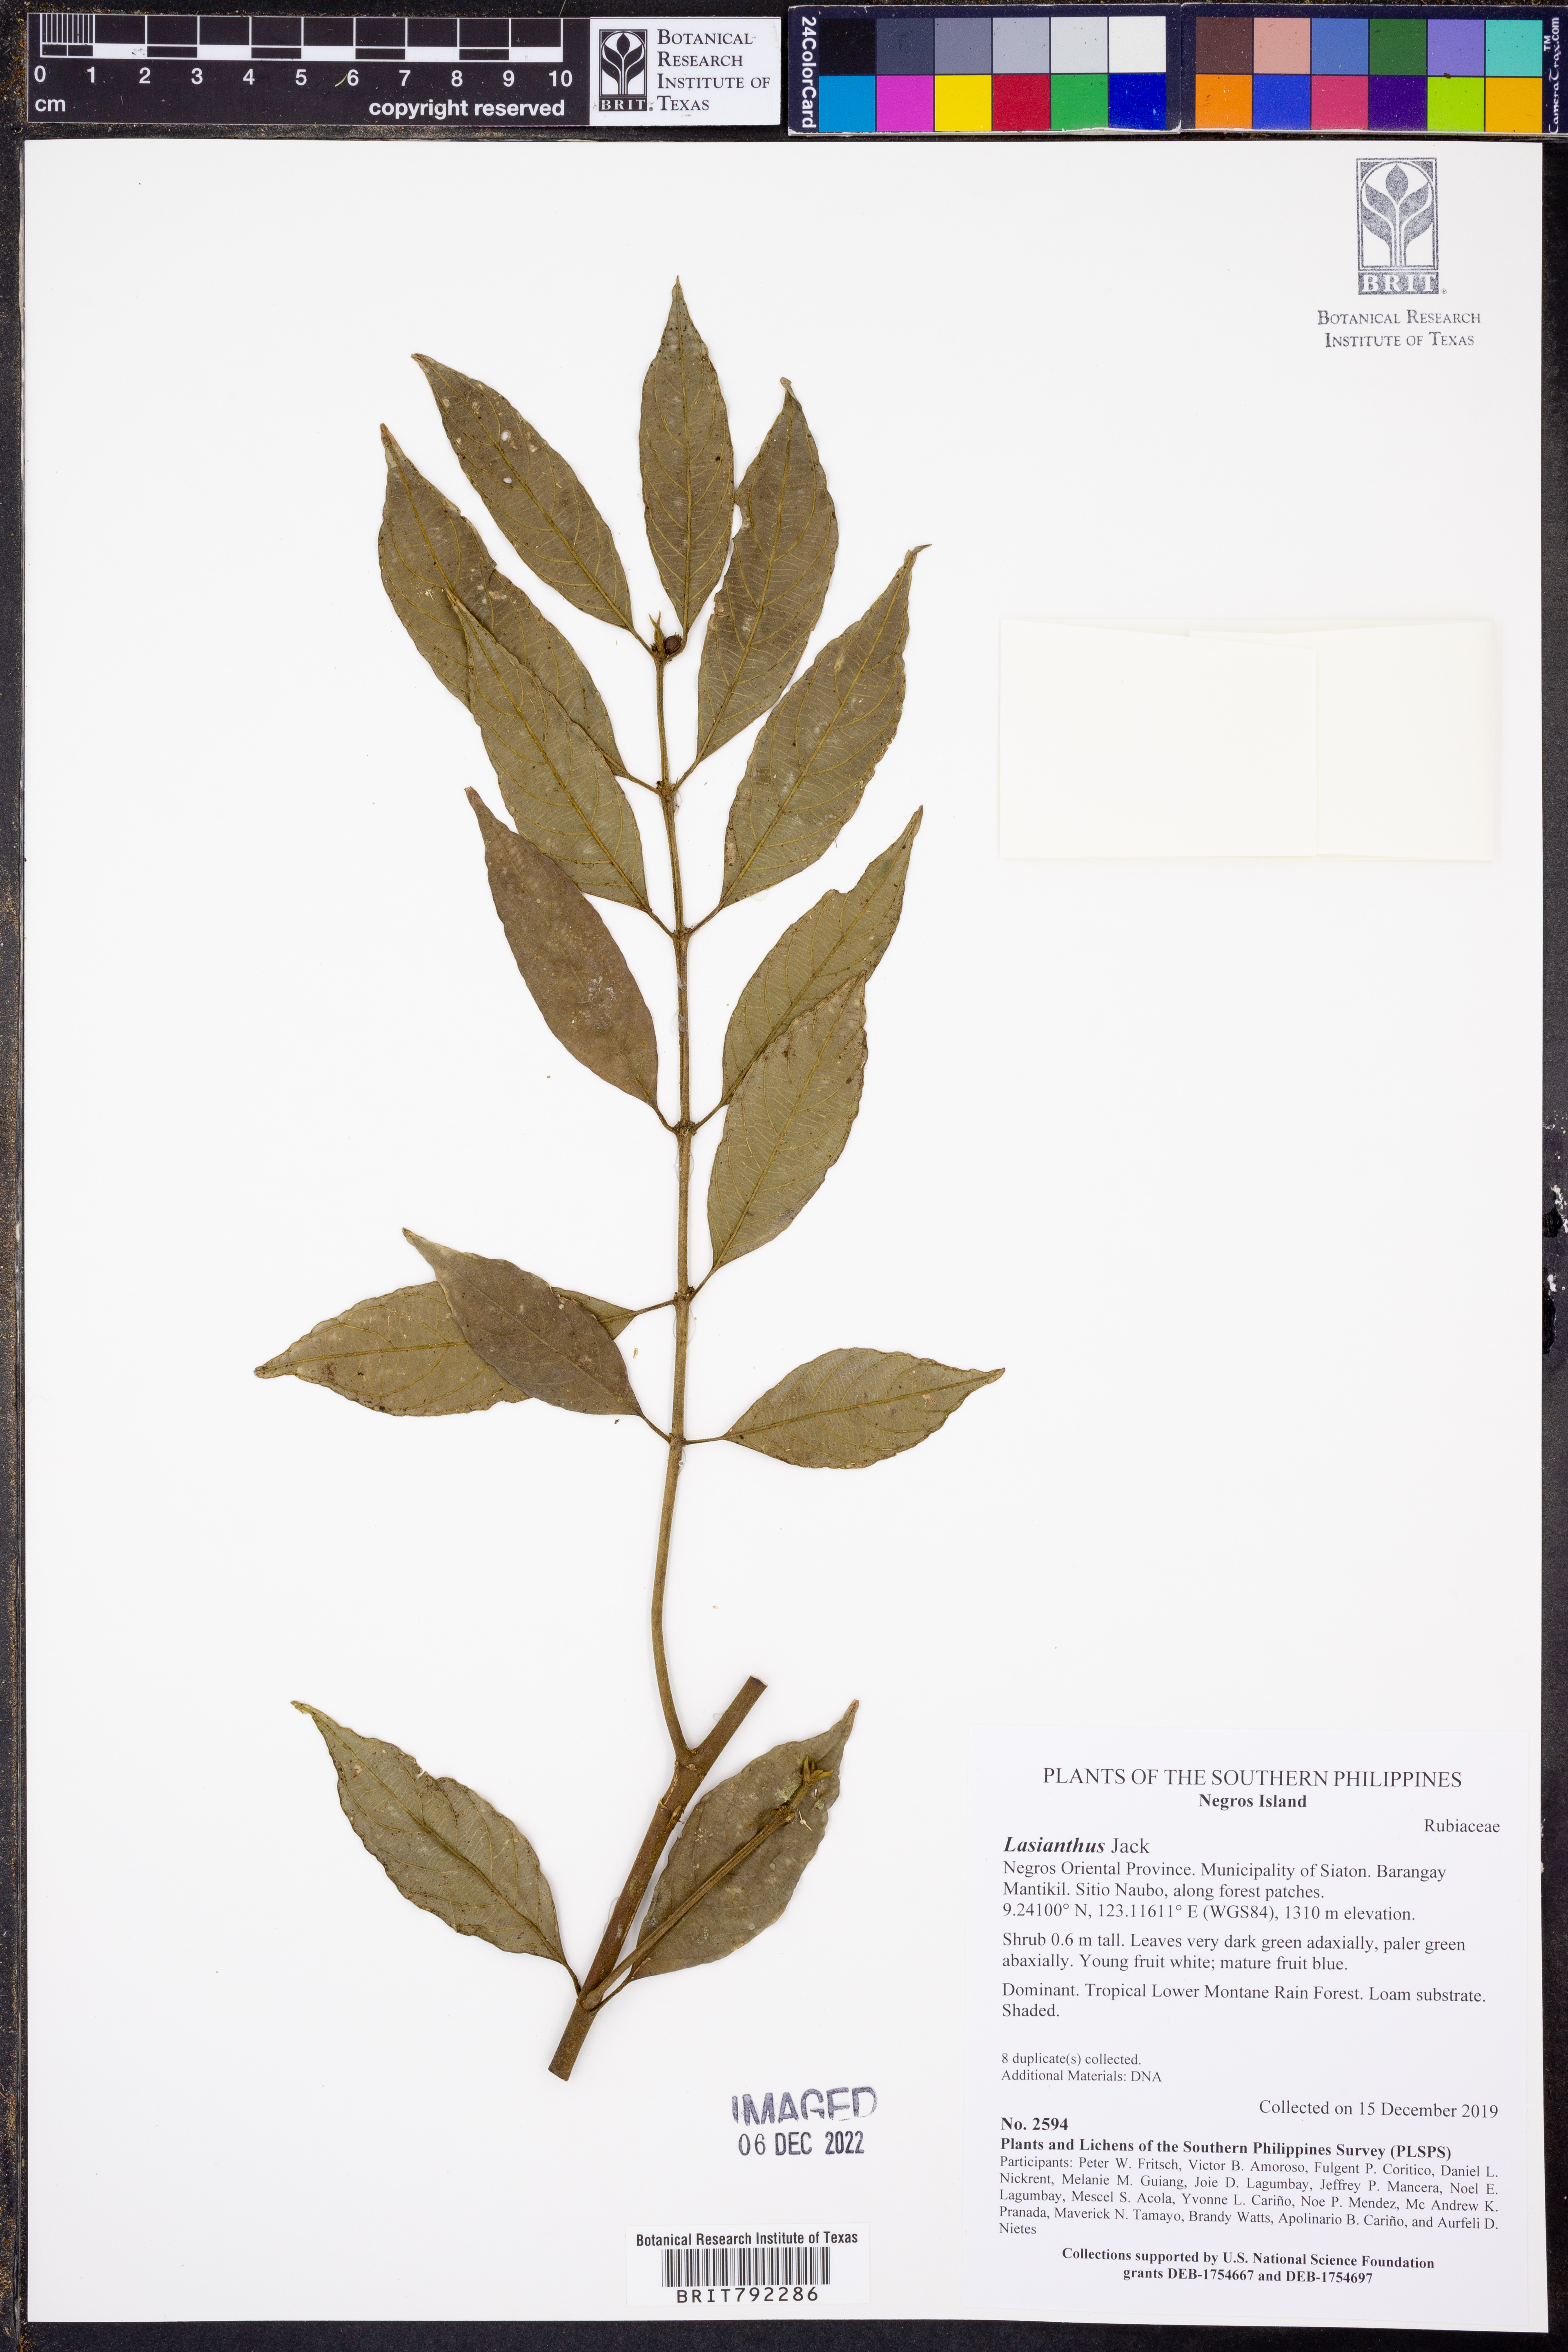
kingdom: Plantae
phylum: Tracheophyta
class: Magnoliopsida
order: Gentianales
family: Rubiaceae
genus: Lasianthus
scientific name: Lasianthus
